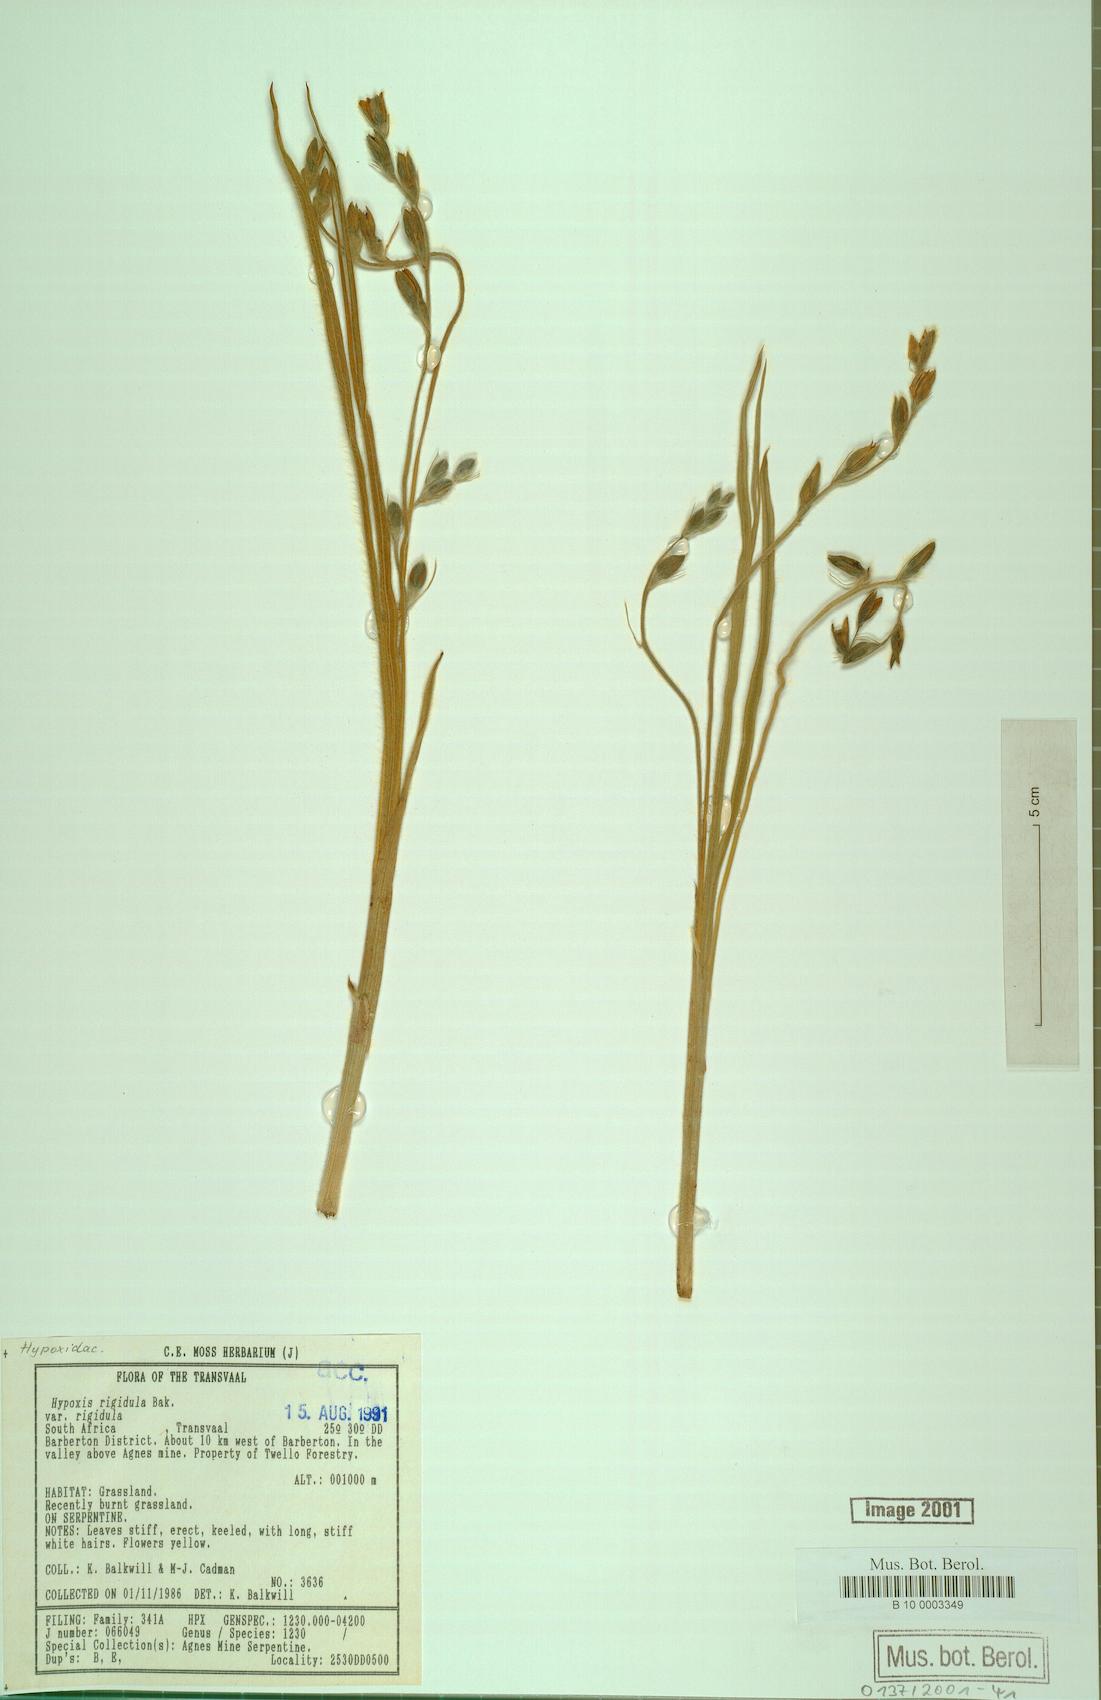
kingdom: Plantae
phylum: Tracheophyta
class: Liliopsida
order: Asparagales
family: Hypoxidaceae
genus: Hypoxis
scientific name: Hypoxis rigidula
